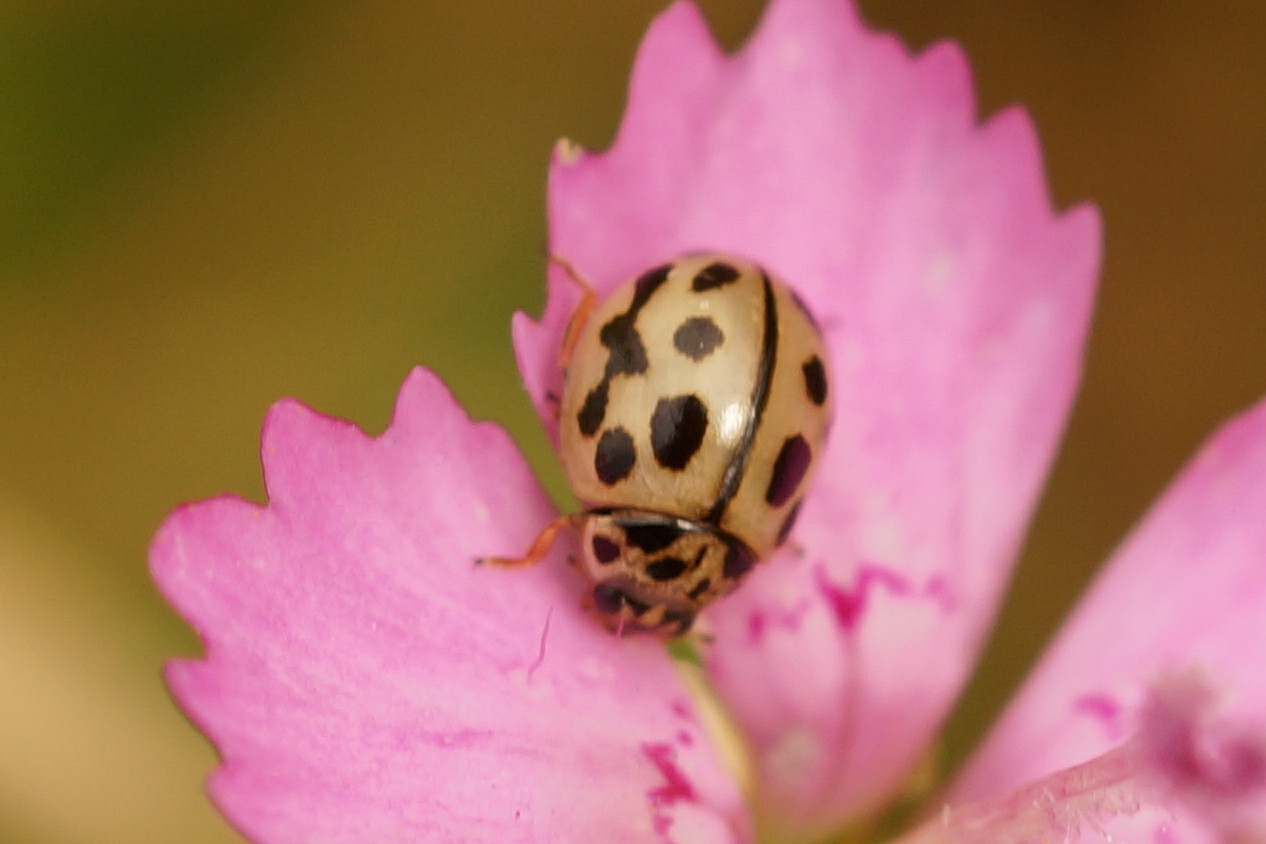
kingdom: Animalia
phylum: Arthropoda
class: Insecta
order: Coleoptera
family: Coccinellidae
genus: Tytthaspis
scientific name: Tytthaspis sedecimpunctata
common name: Sekstenprikket mariehøne
